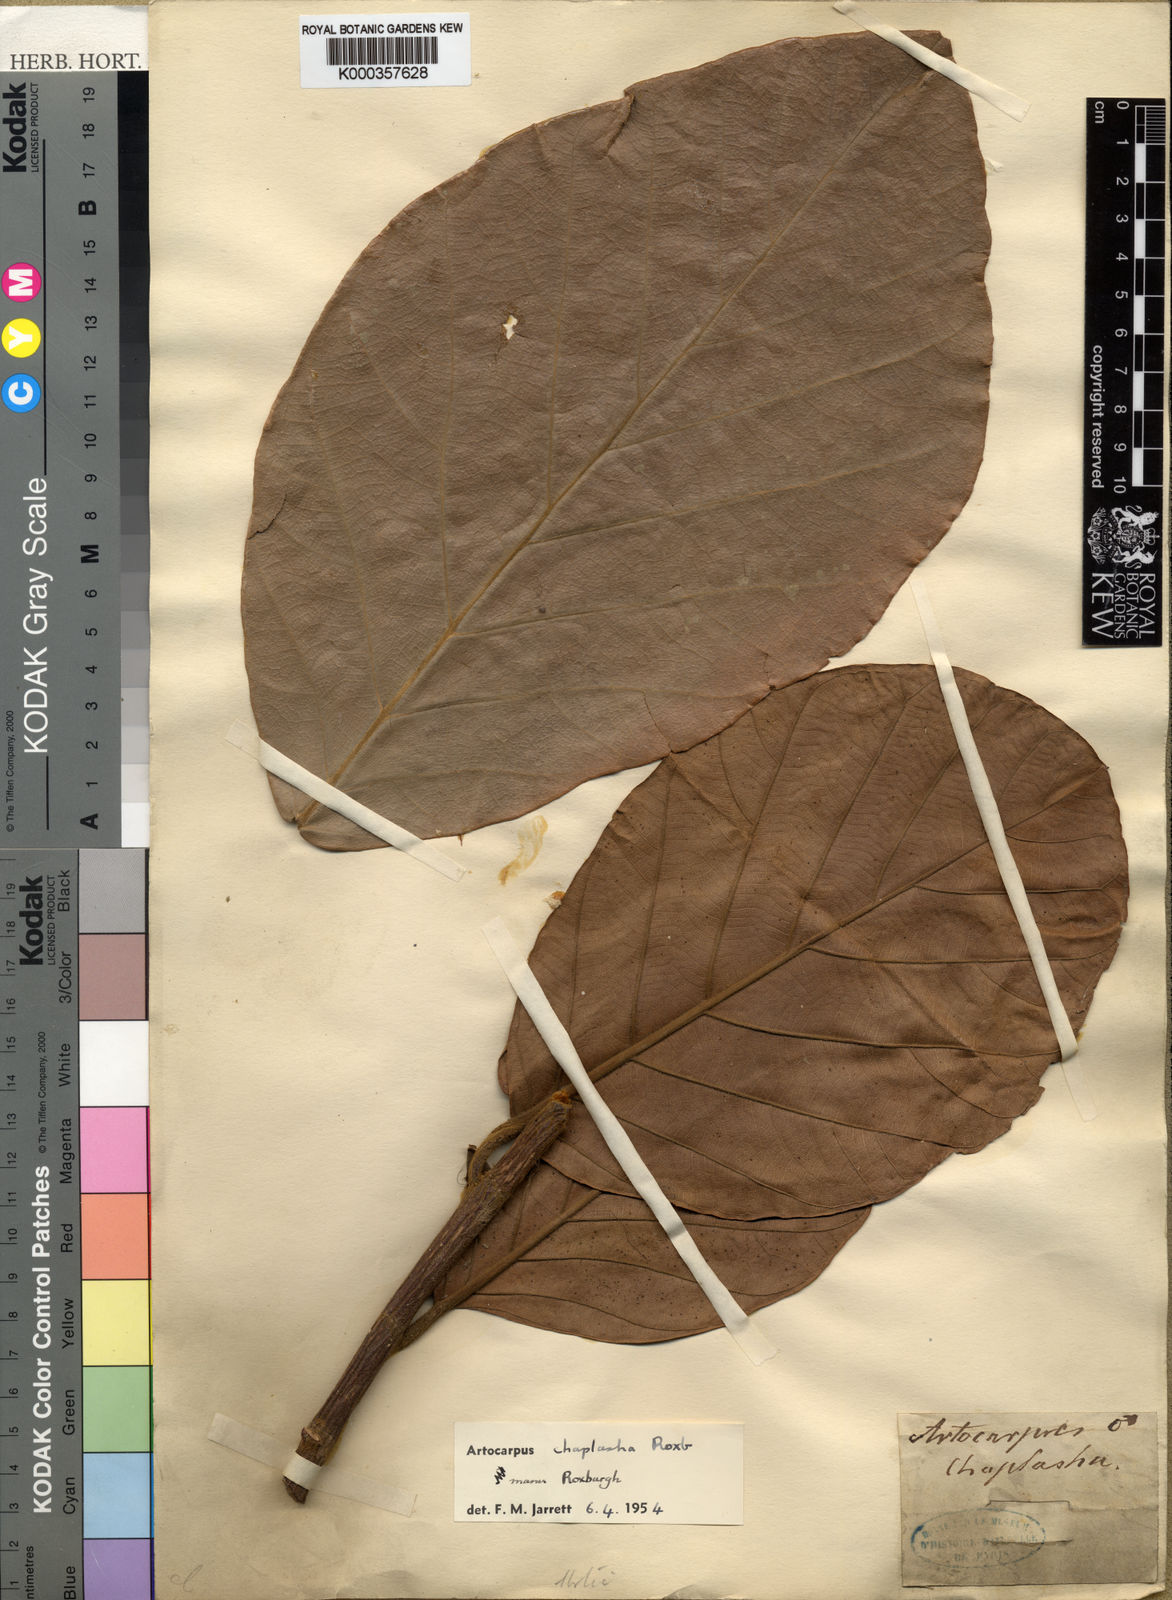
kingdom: Plantae
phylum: Tracheophyta
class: Magnoliopsida
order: Rosales
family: Moraceae
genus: Artocarpus
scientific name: Artocarpus chama
